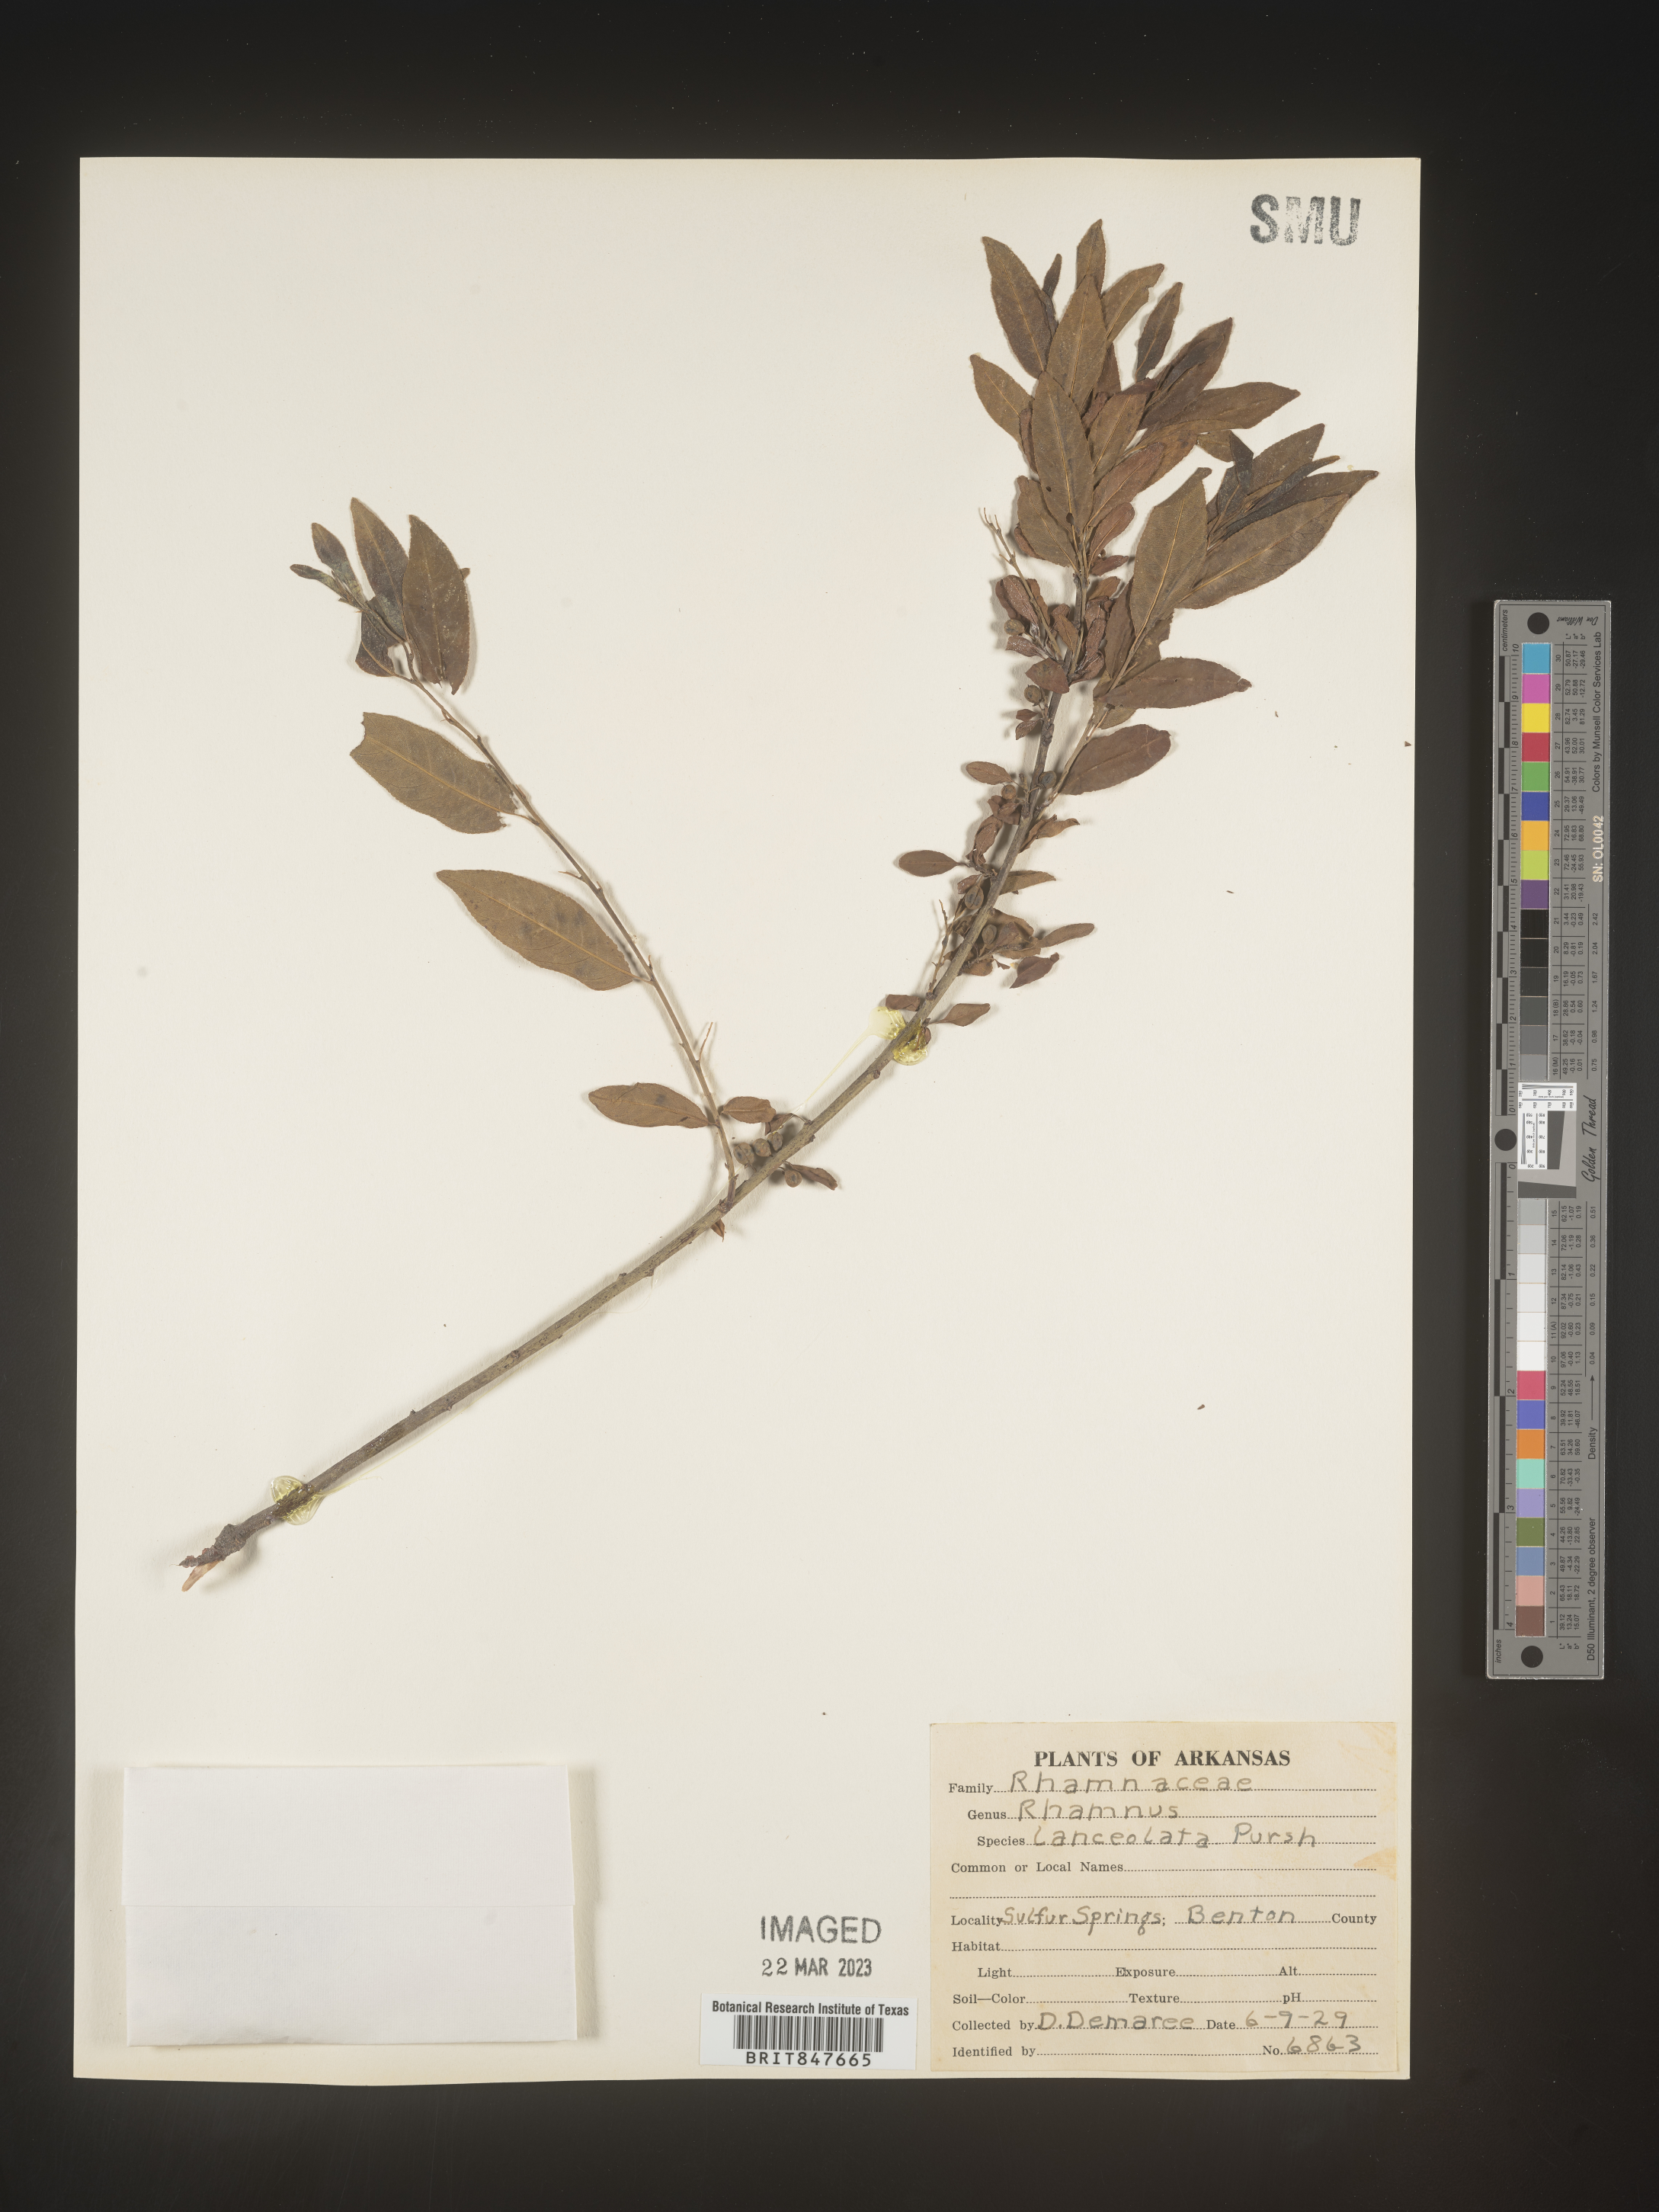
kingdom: Plantae
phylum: Tracheophyta
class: Magnoliopsida
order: Rosales
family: Rhamnaceae
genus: Endotropis
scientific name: Endotropis lanceolata
